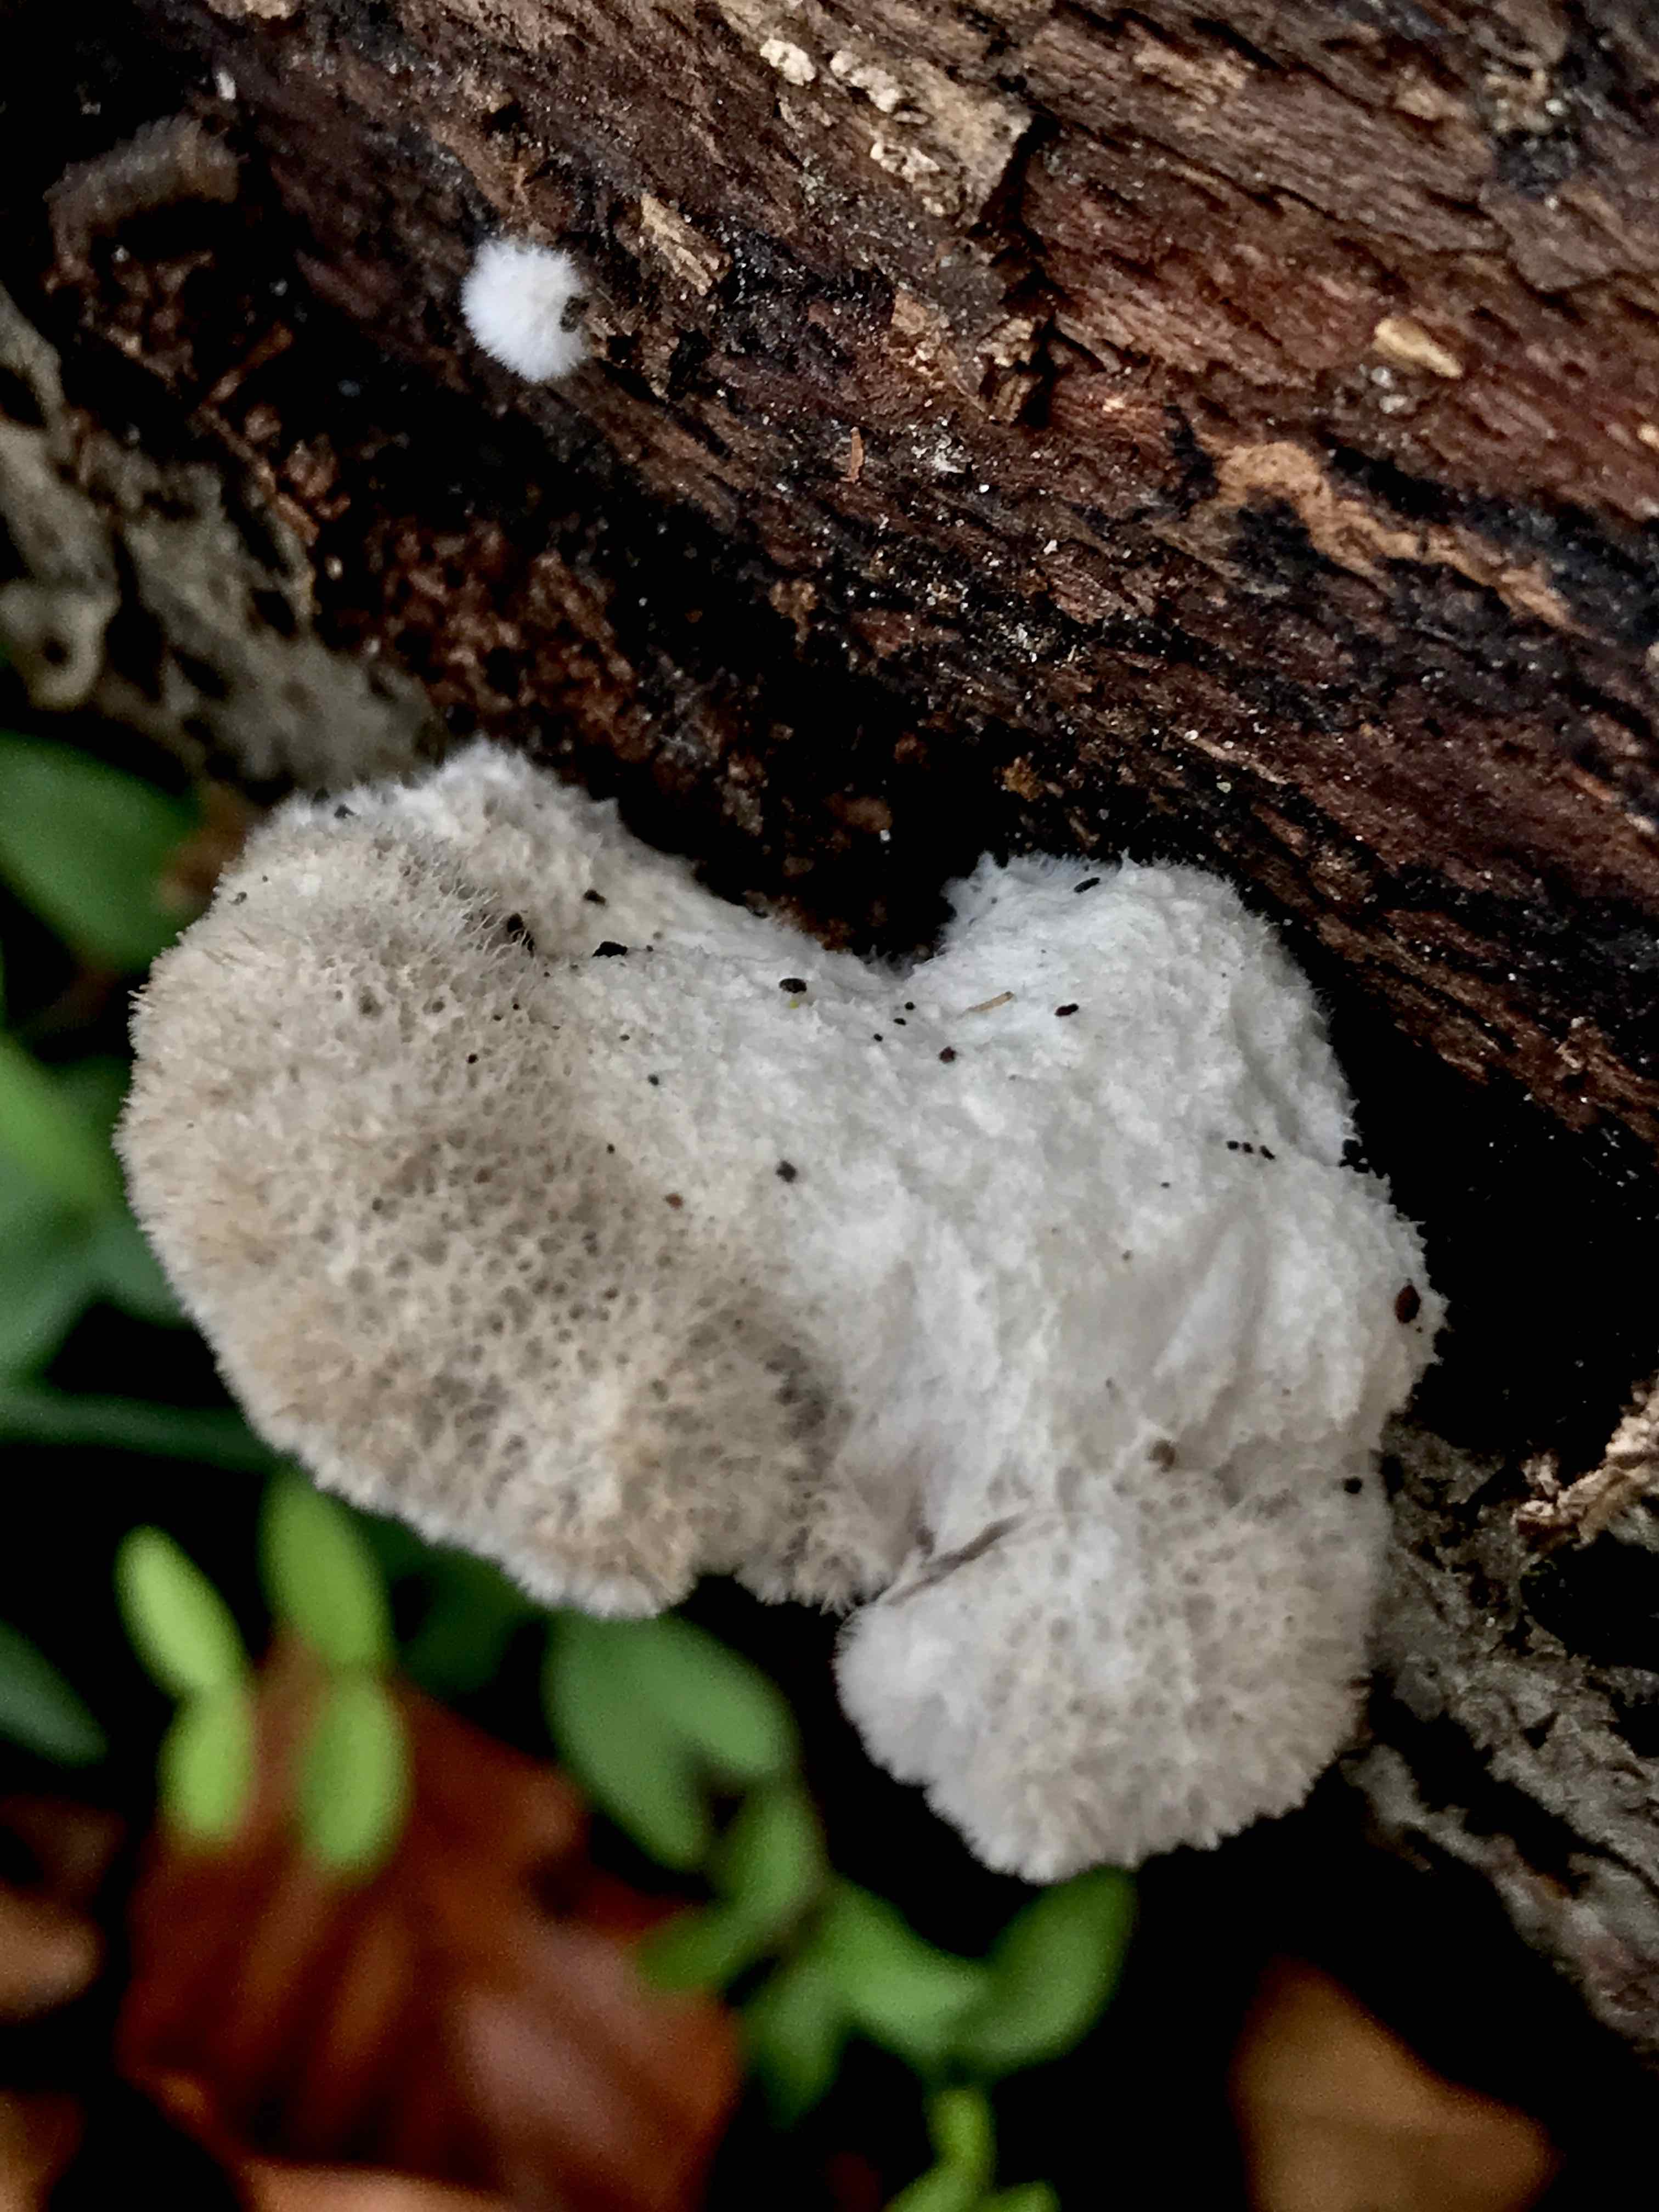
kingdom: Fungi
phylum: Basidiomycota
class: Agaricomycetes
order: Agaricales
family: Schizophyllaceae
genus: Schizophyllum
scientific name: Schizophyllum commune
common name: kløvblad
